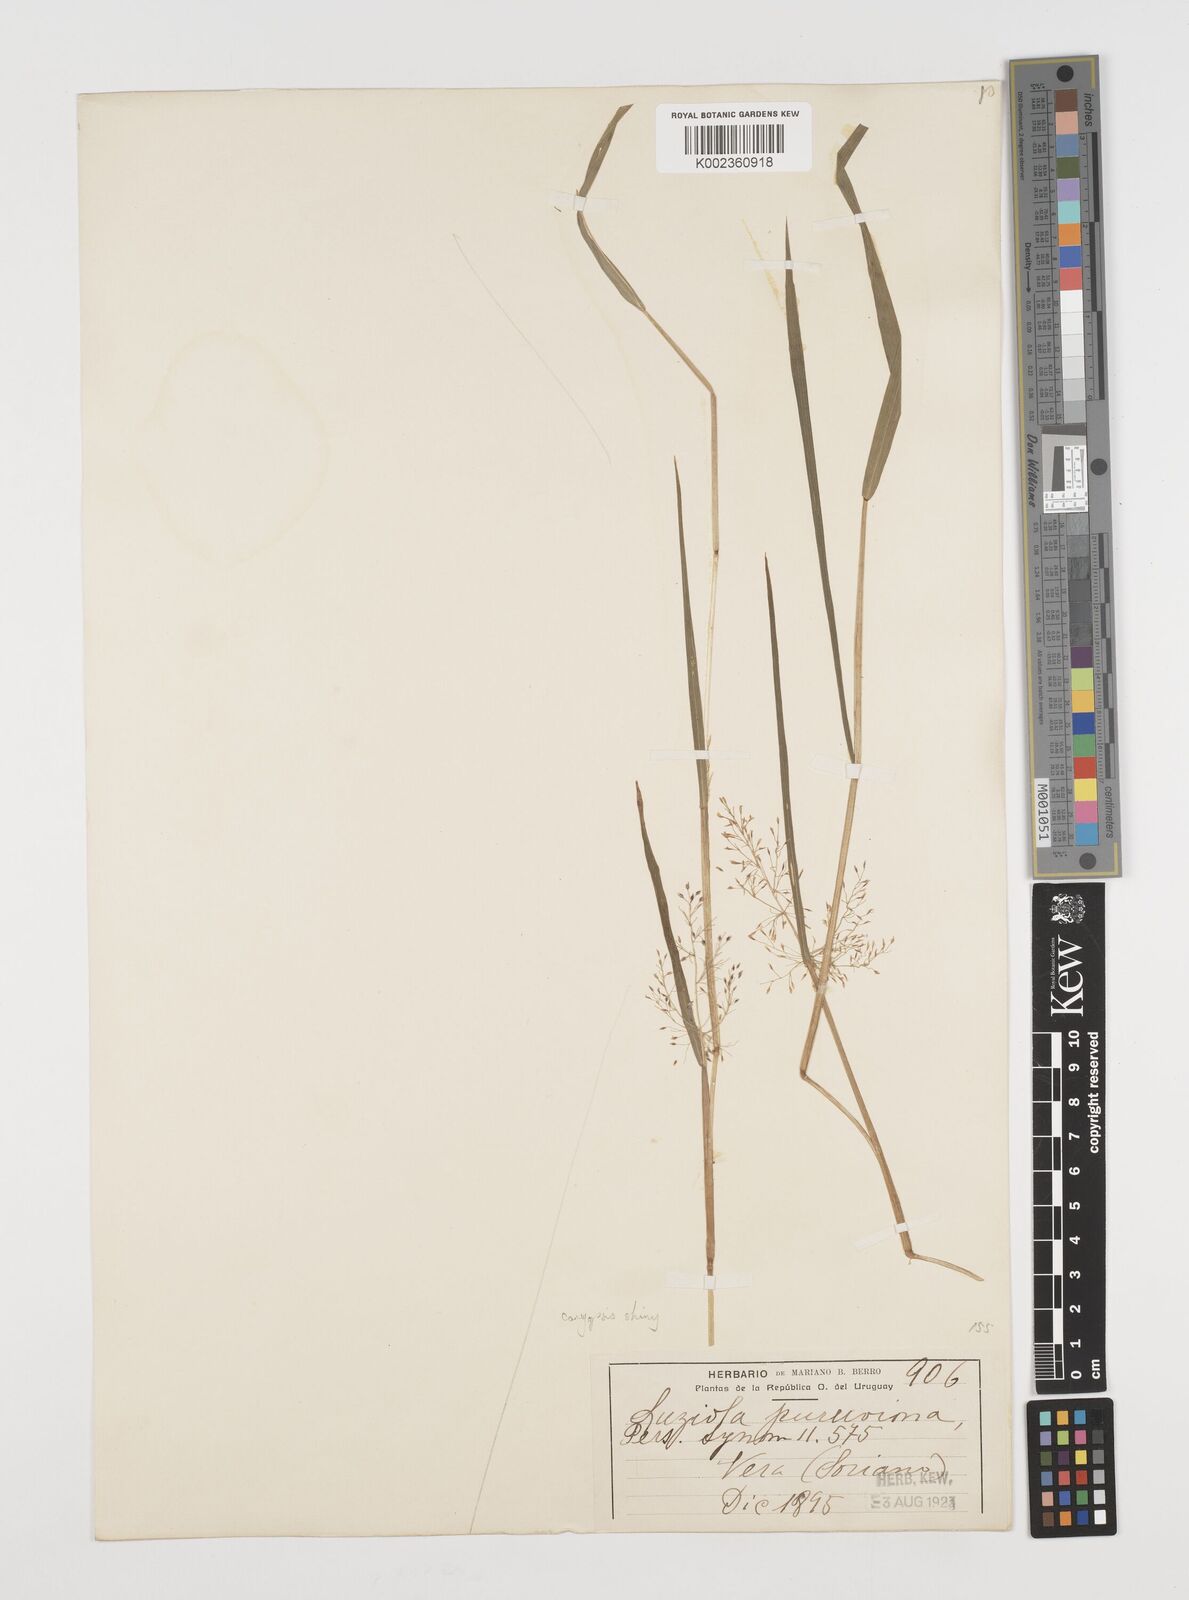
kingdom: Plantae
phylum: Tracheophyta
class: Liliopsida
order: Poales
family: Poaceae
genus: Luziola
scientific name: Luziola peruviana
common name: Peruvian watergrass
